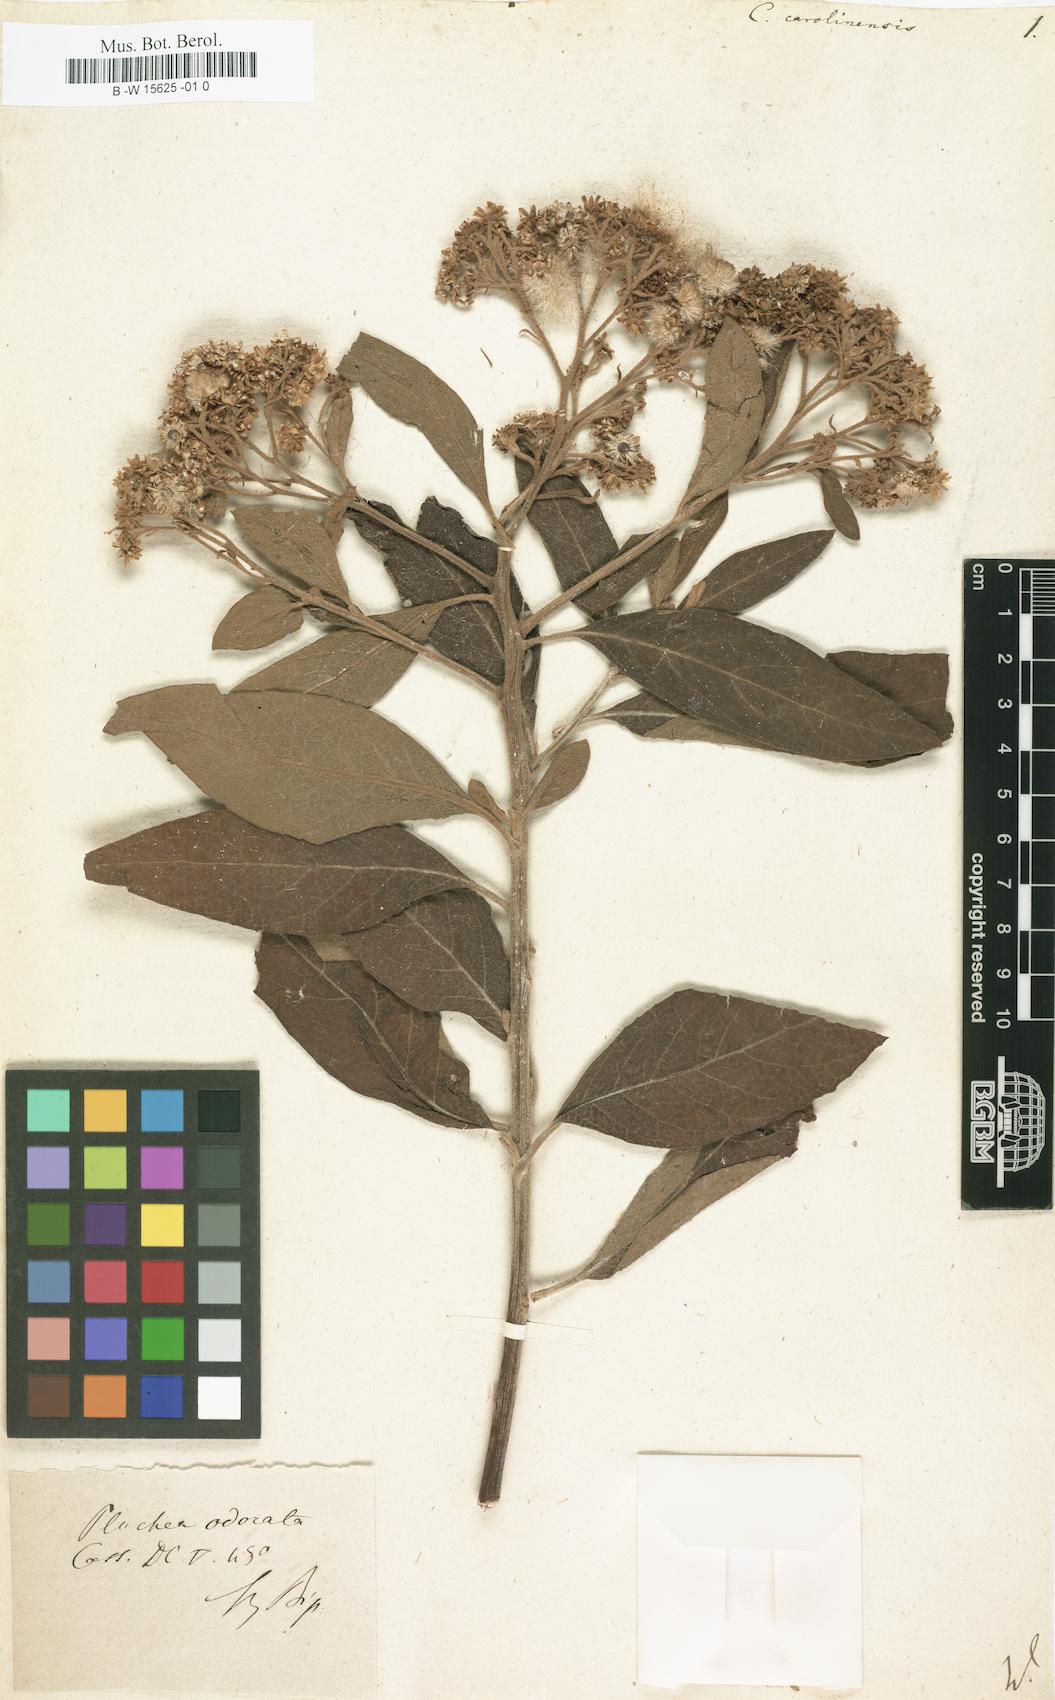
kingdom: Plantae
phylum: Tracheophyta
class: Magnoliopsida
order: Asterales
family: Asteraceae
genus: Pluchea
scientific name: Pluchea carolinensis
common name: Marsh fleabane
